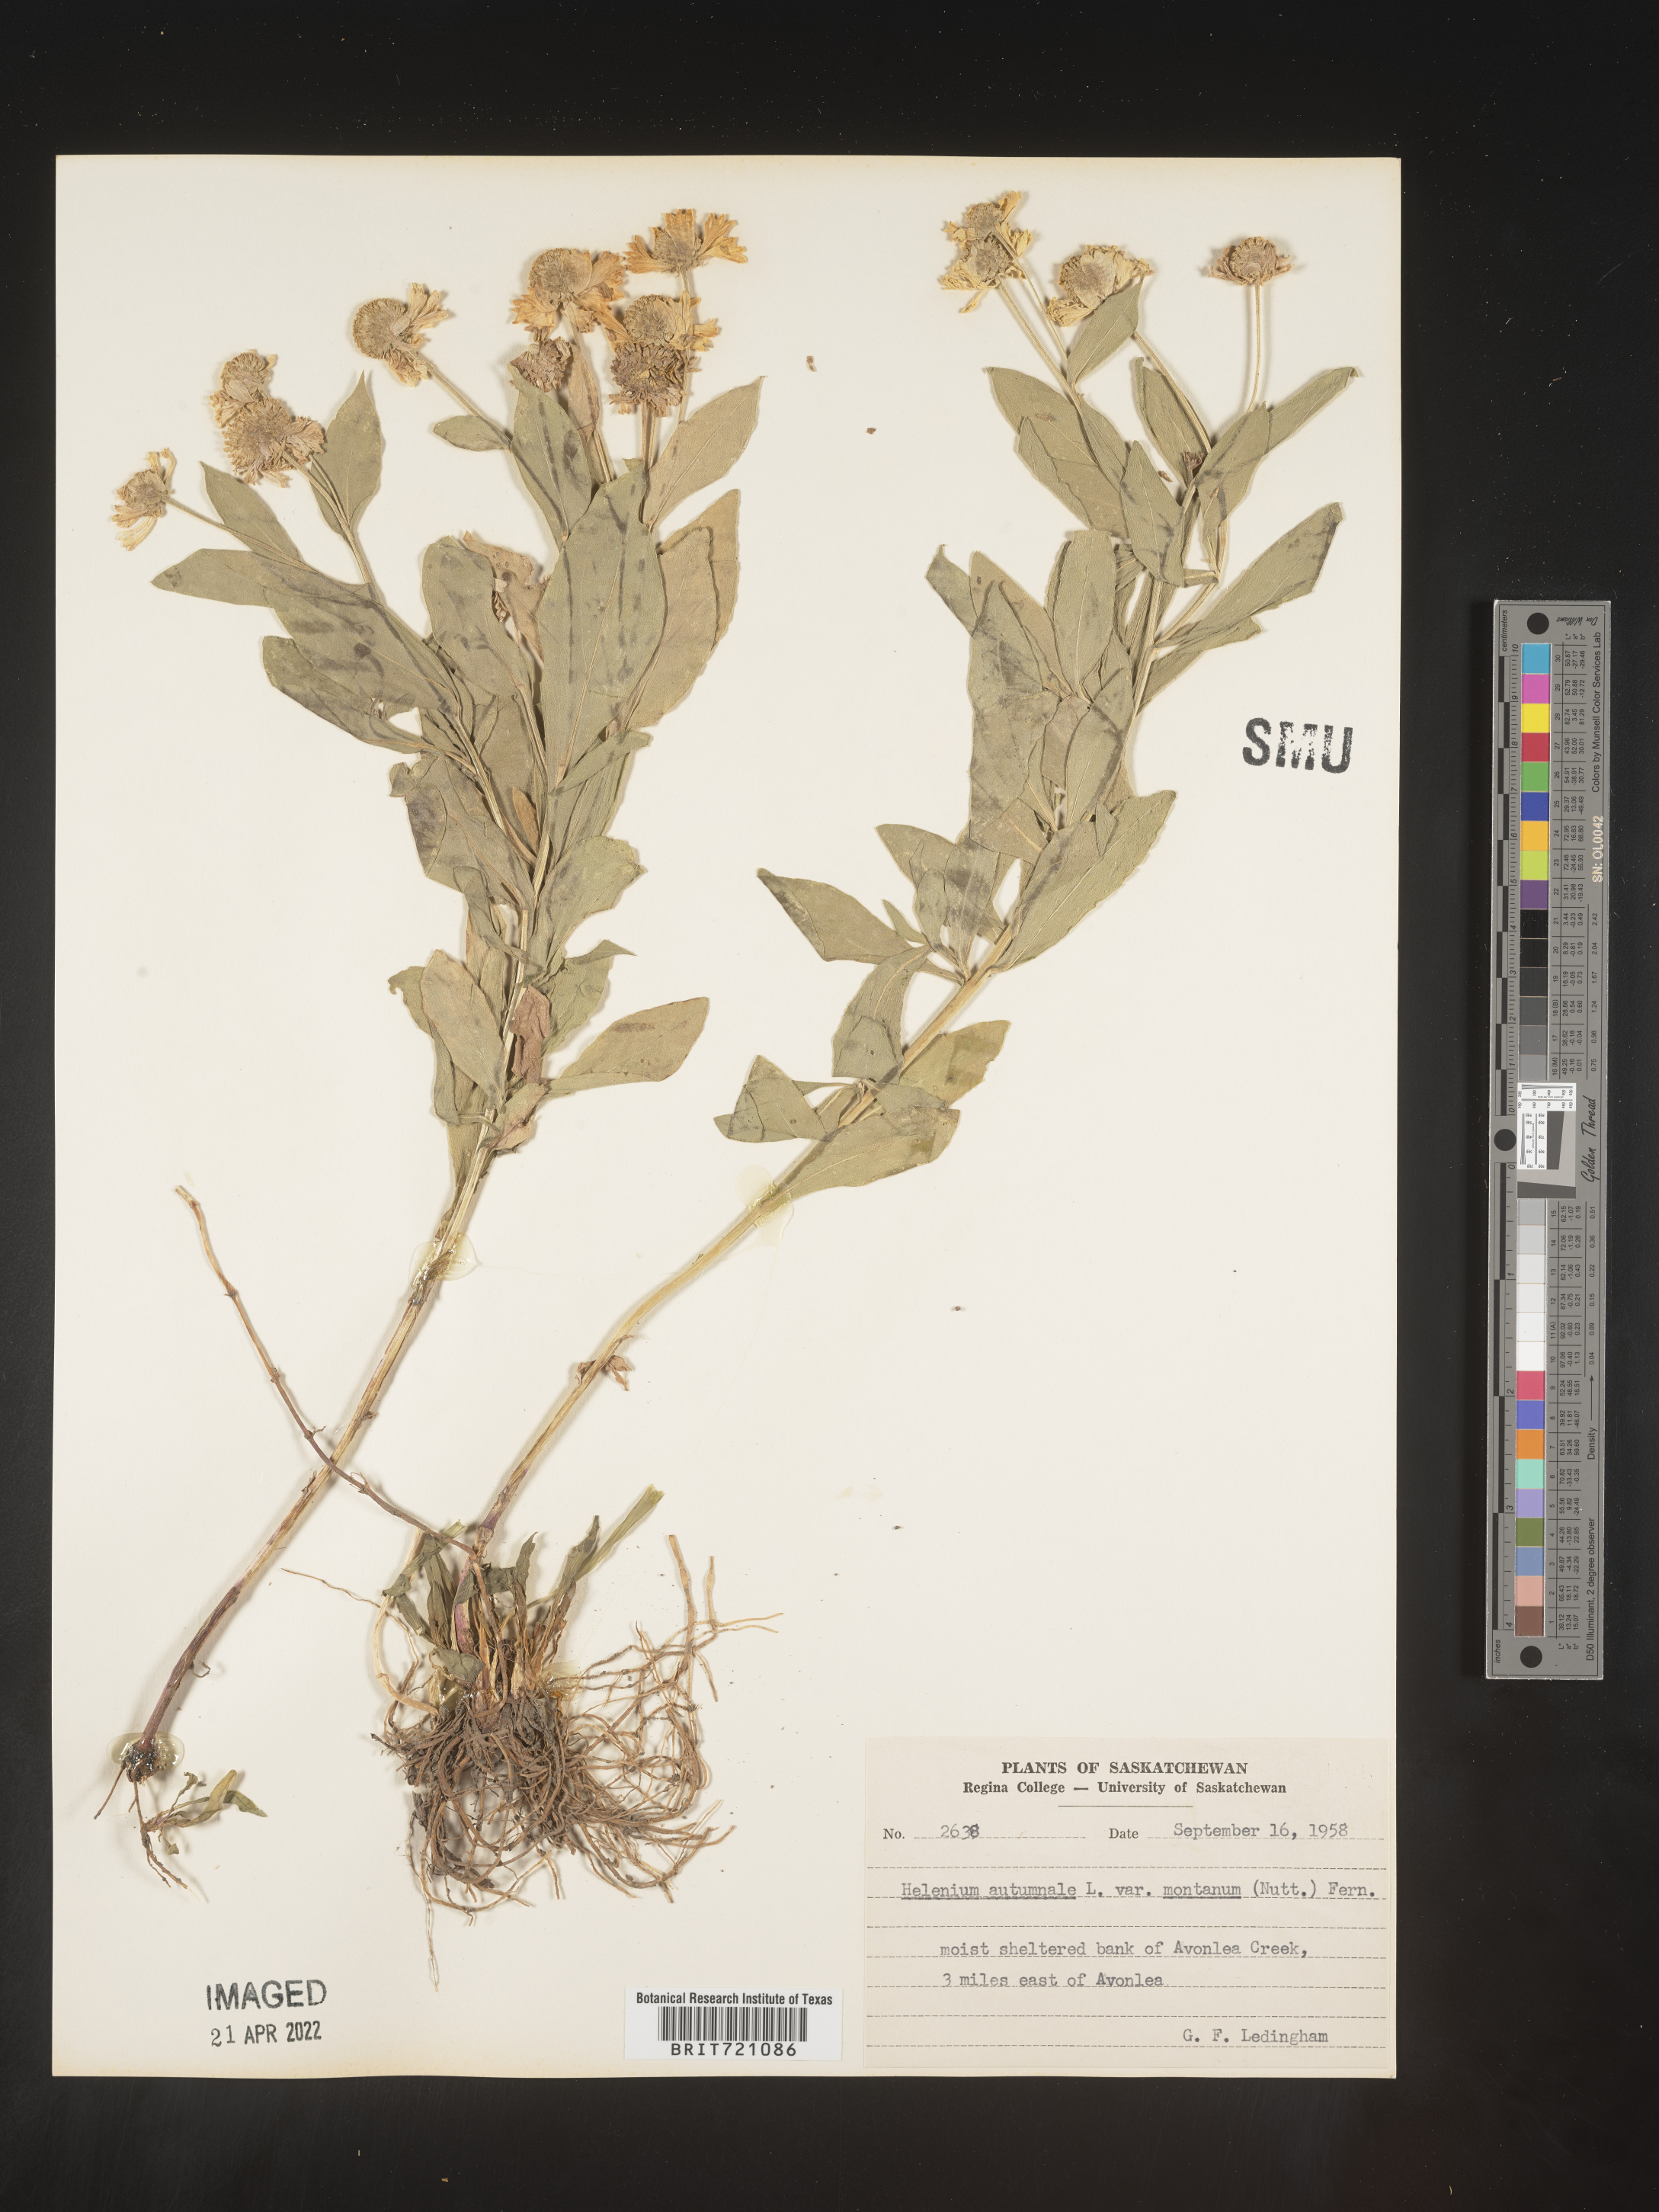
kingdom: Plantae
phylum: Tracheophyta
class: Magnoliopsida
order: Asterales
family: Asteraceae
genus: Helenium
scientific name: Helenium autumnale
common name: Sneezeweed
